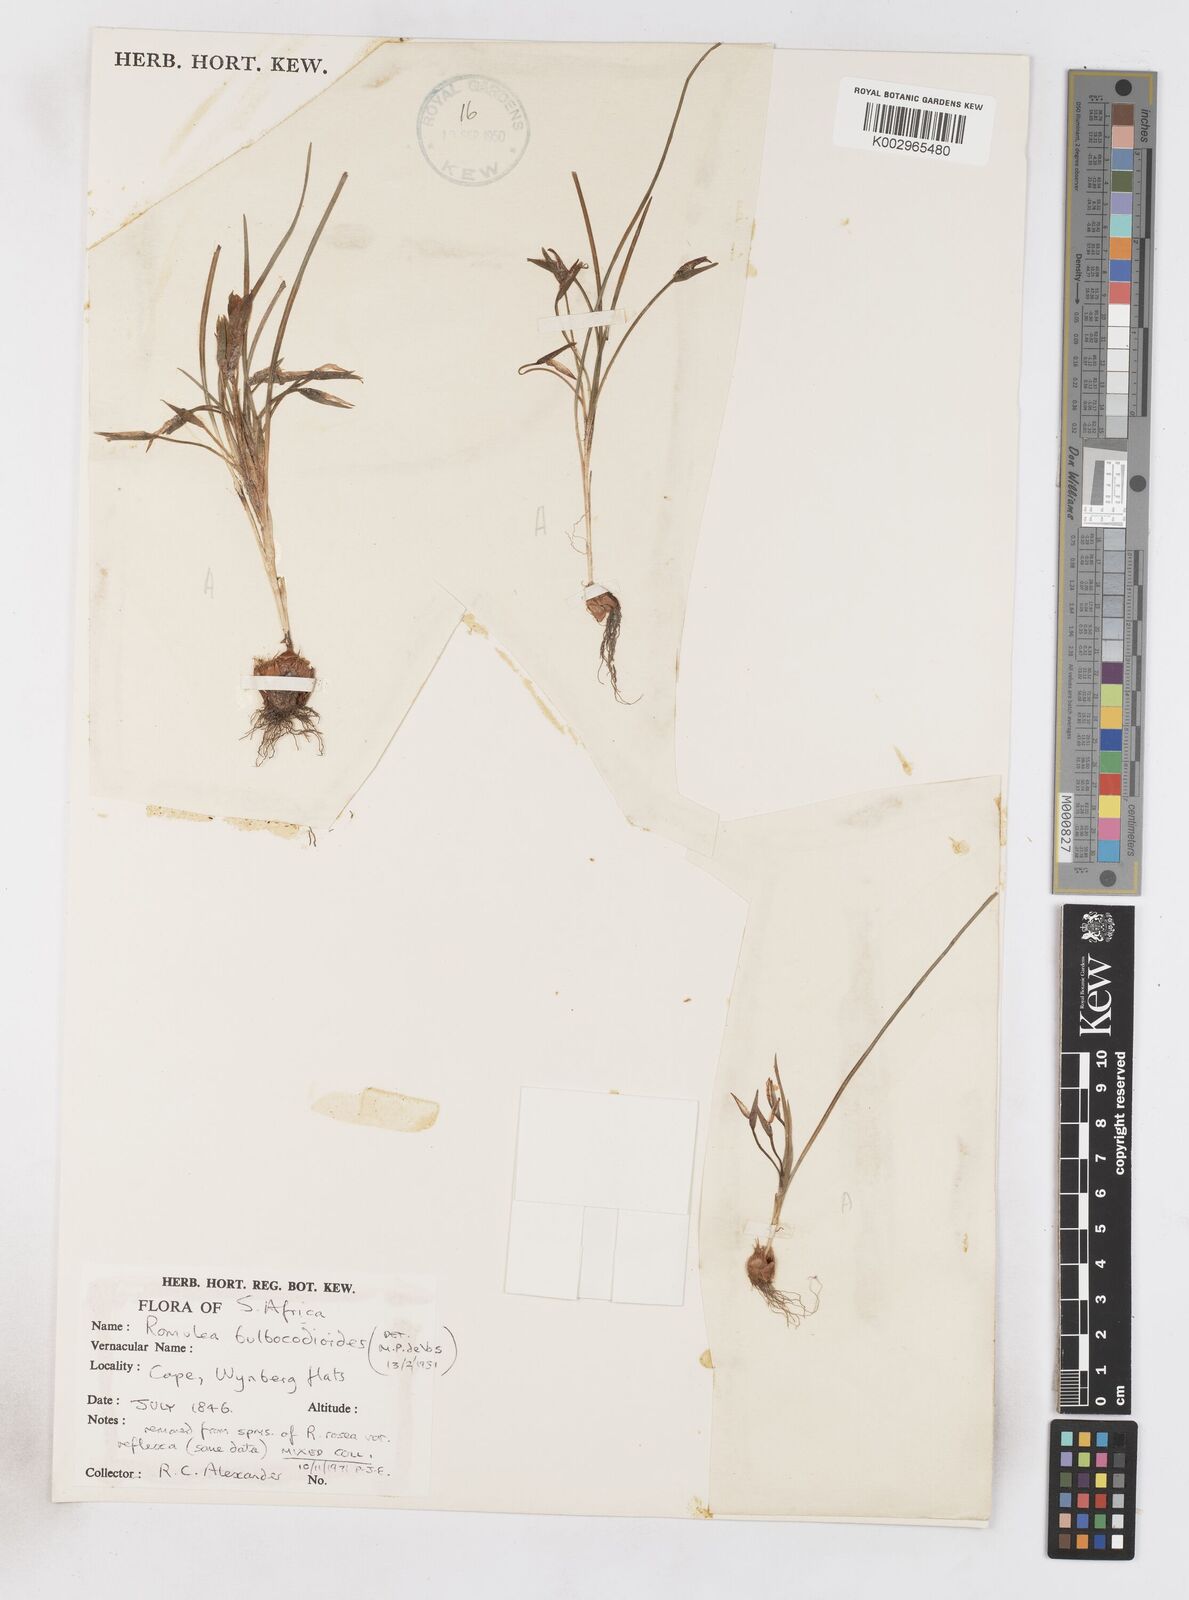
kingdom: Plantae
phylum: Tracheophyta
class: Liliopsida
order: Asparagales
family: Iridaceae
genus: Romulea
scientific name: Romulea flava
